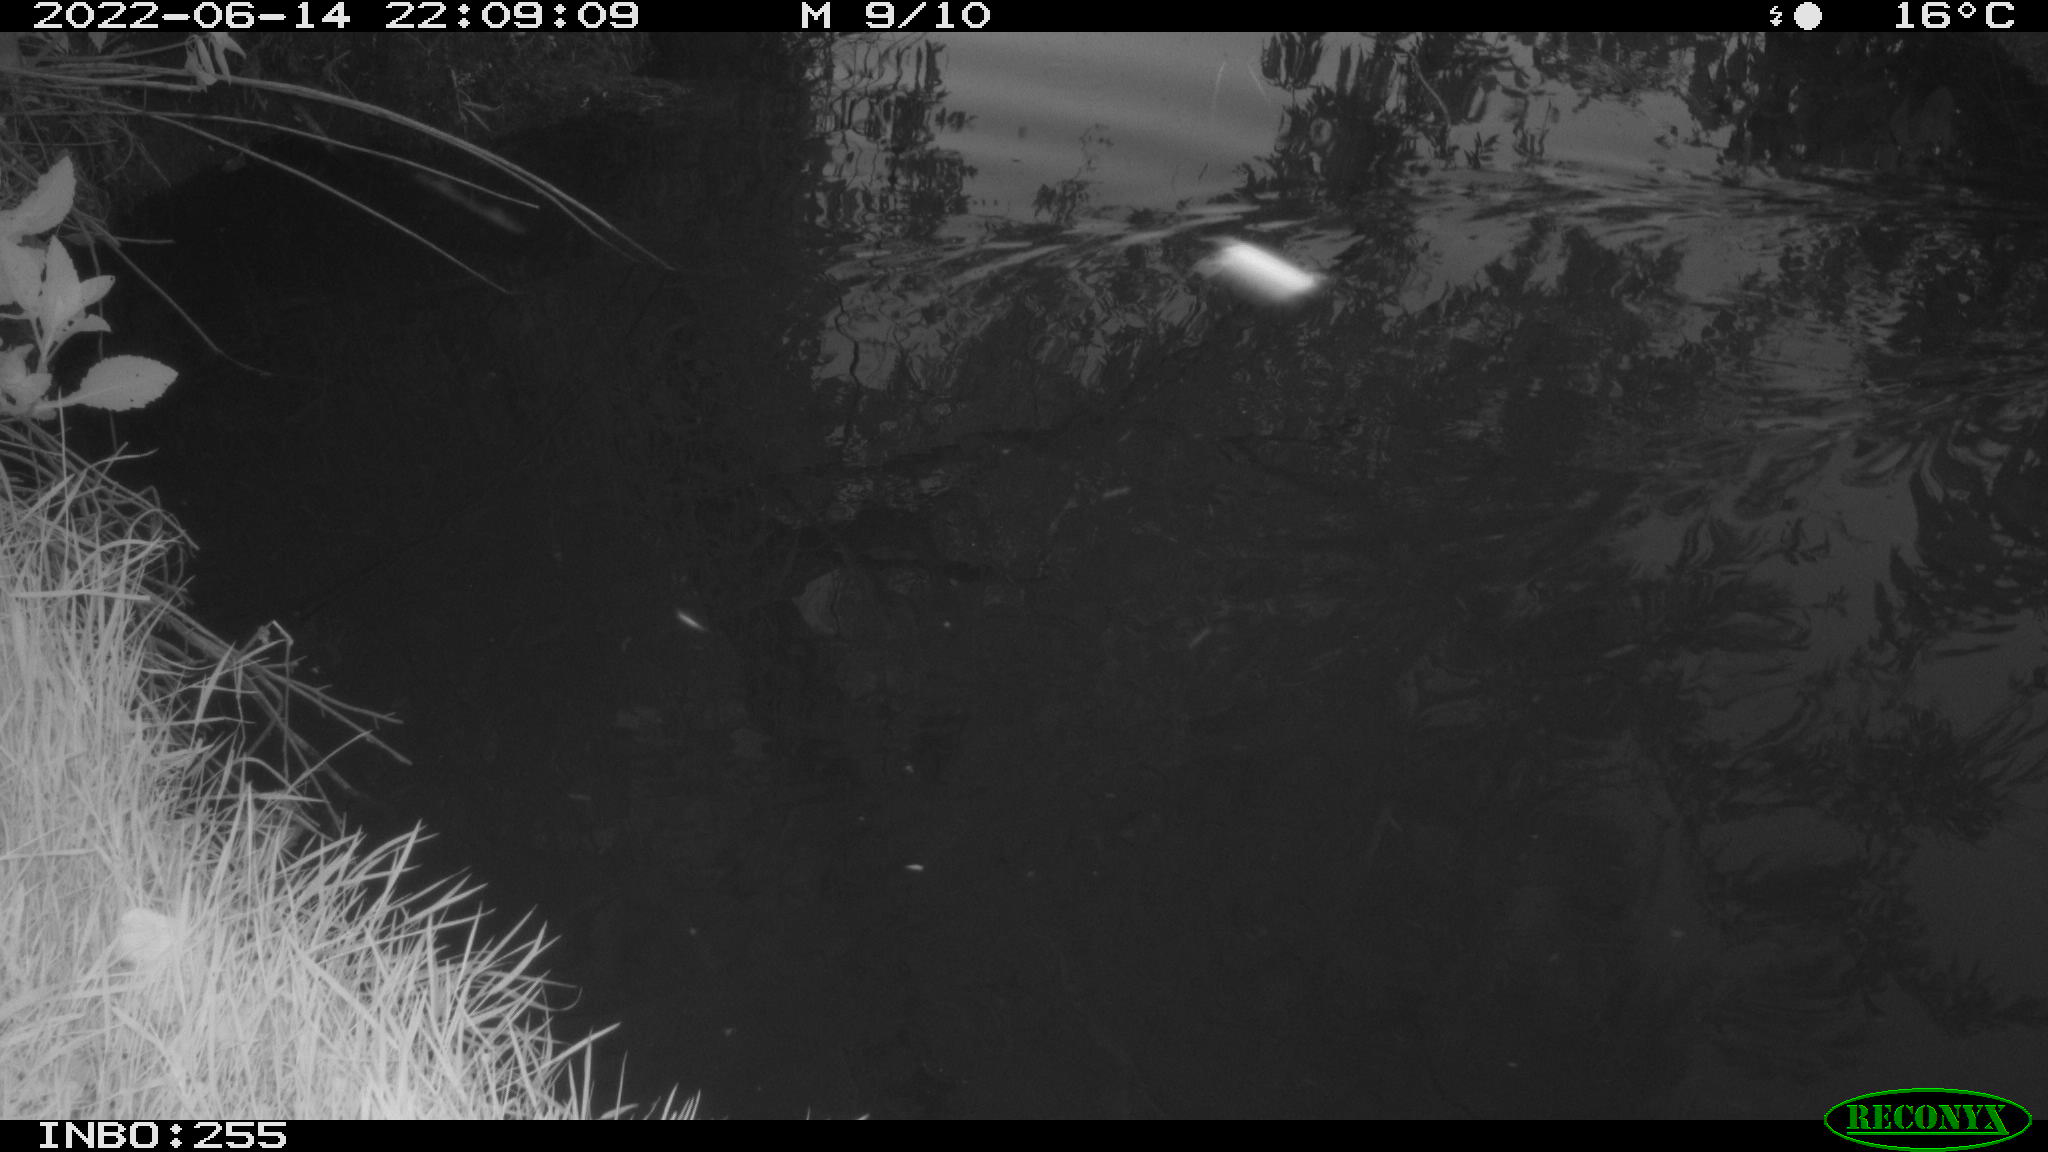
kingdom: Animalia
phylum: Chordata
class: Mammalia
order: Rodentia
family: Muridae
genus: Rattus
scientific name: Rattus norvegicus
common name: Brown rat
